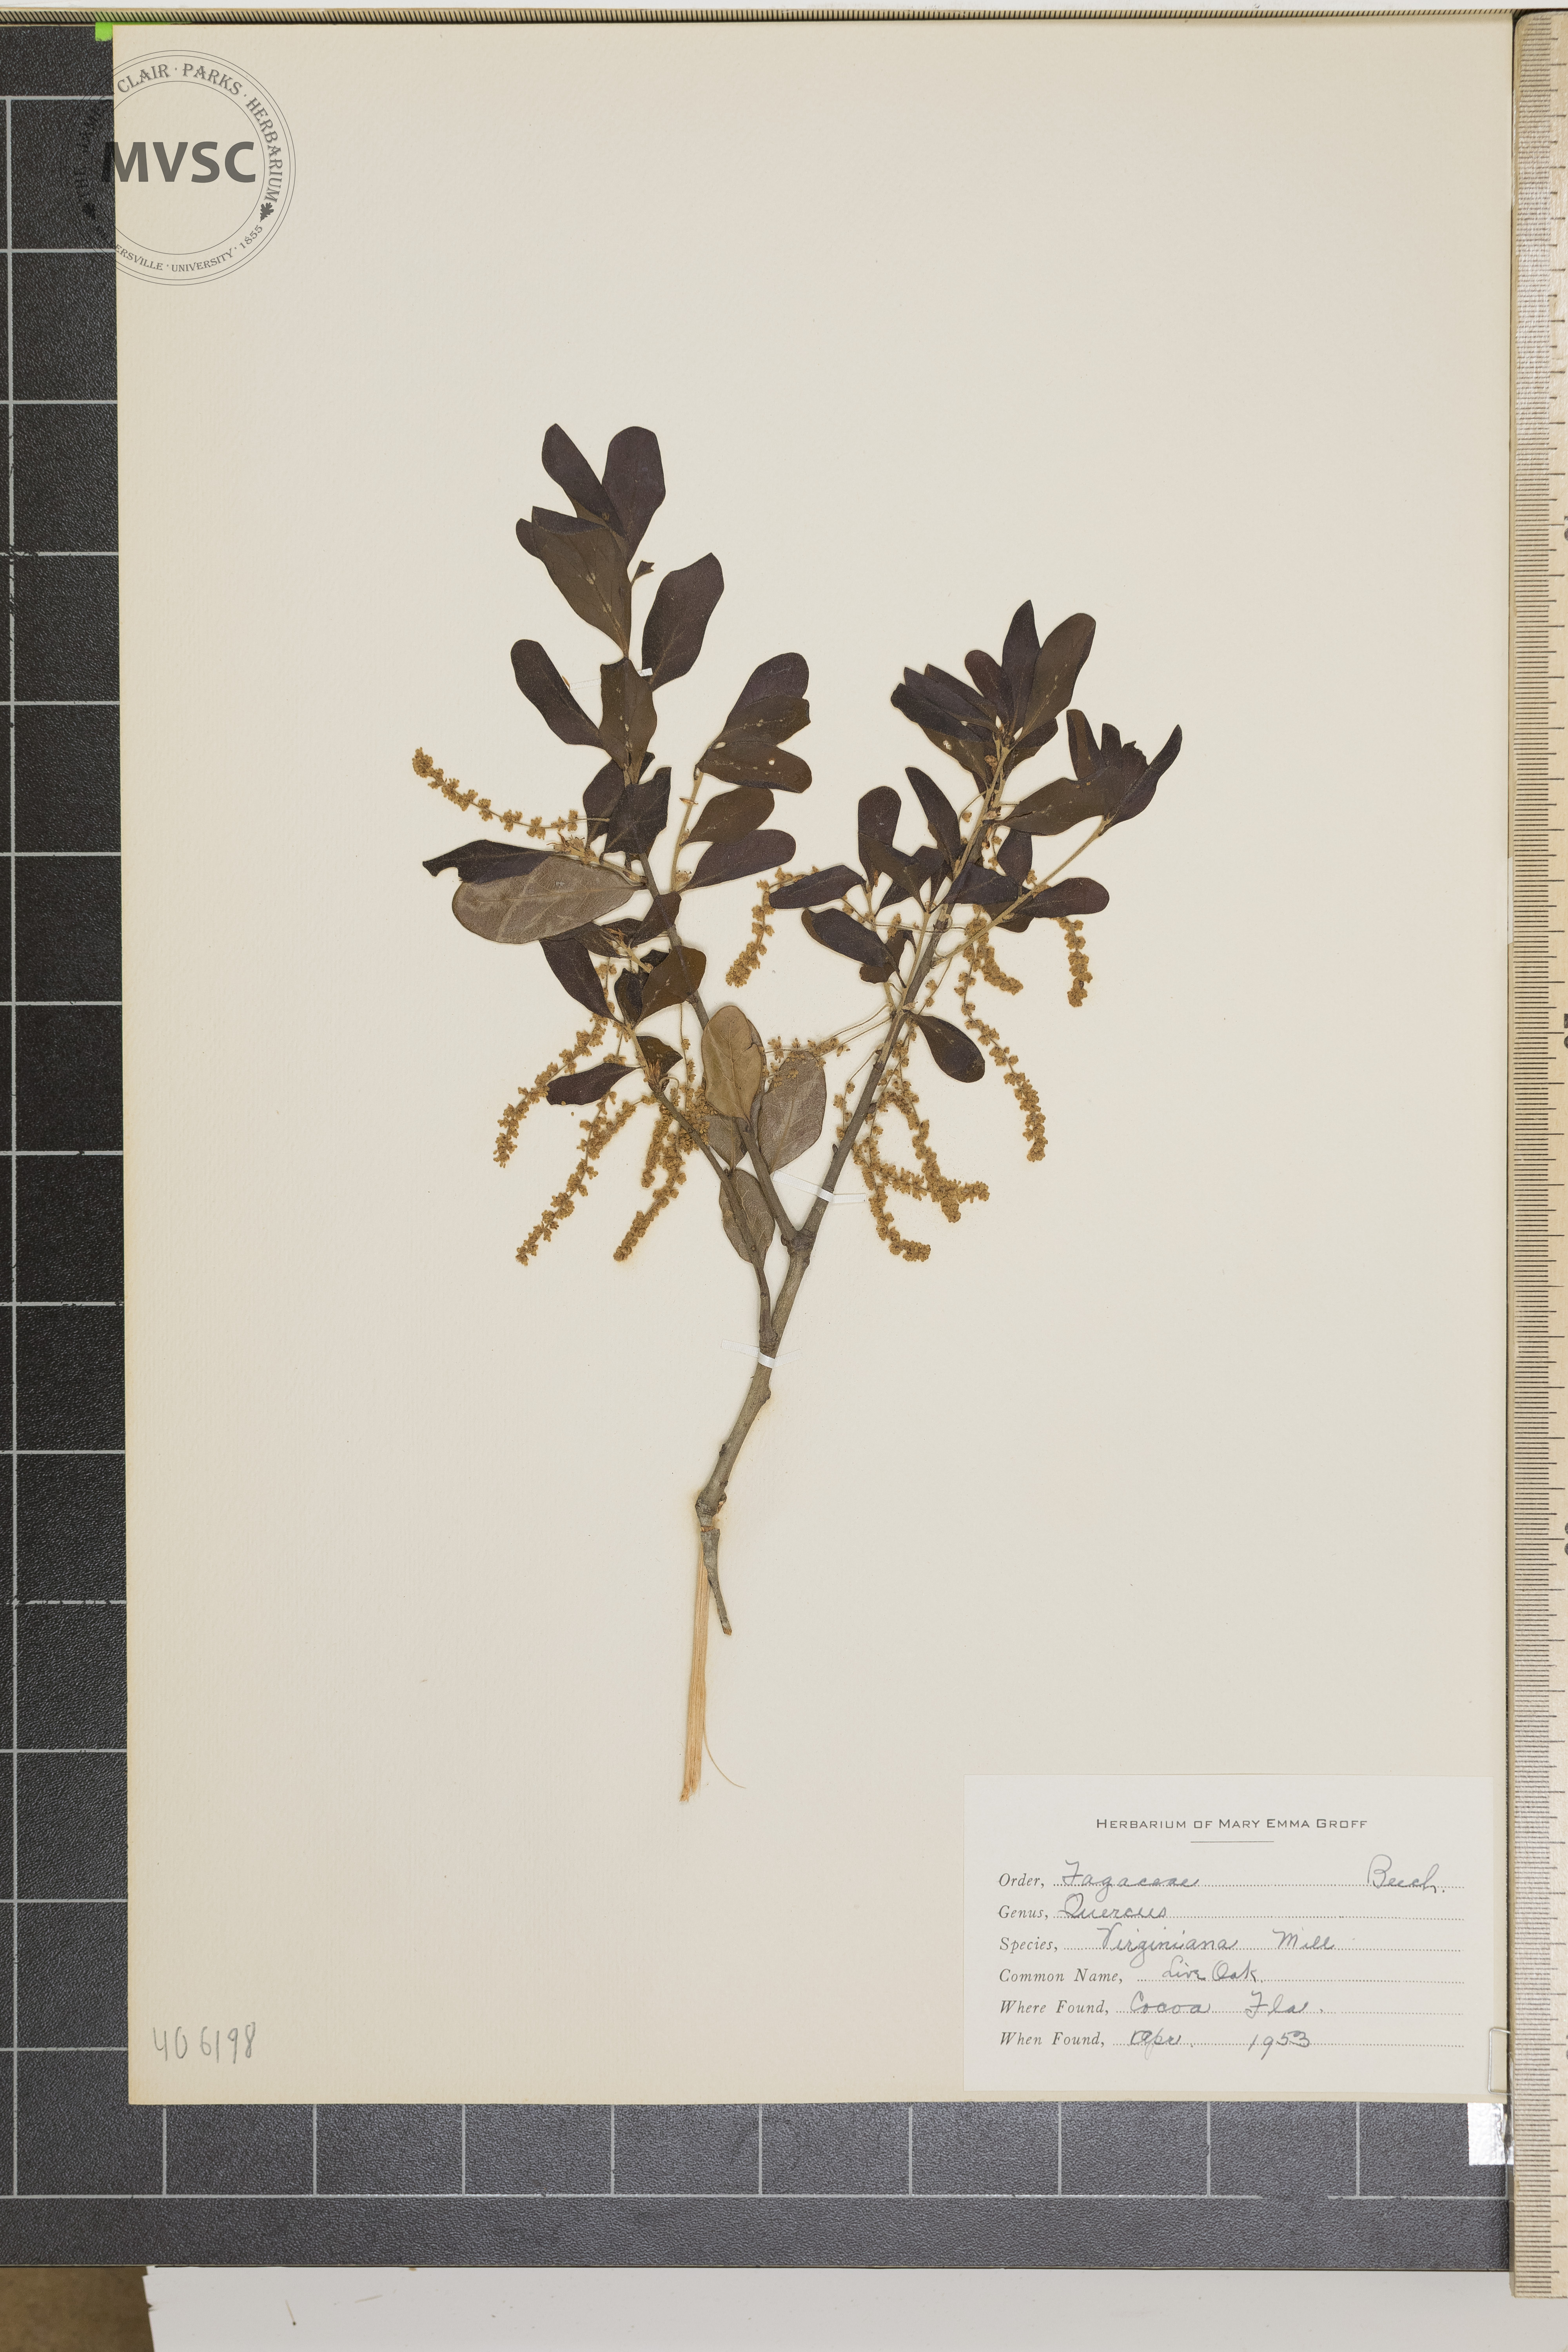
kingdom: Plantae
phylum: Tracheophyta
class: Magnoliopsida
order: Fagales
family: Fagaceae
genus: Quercus
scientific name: Quercus virginiana
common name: Live Oak
